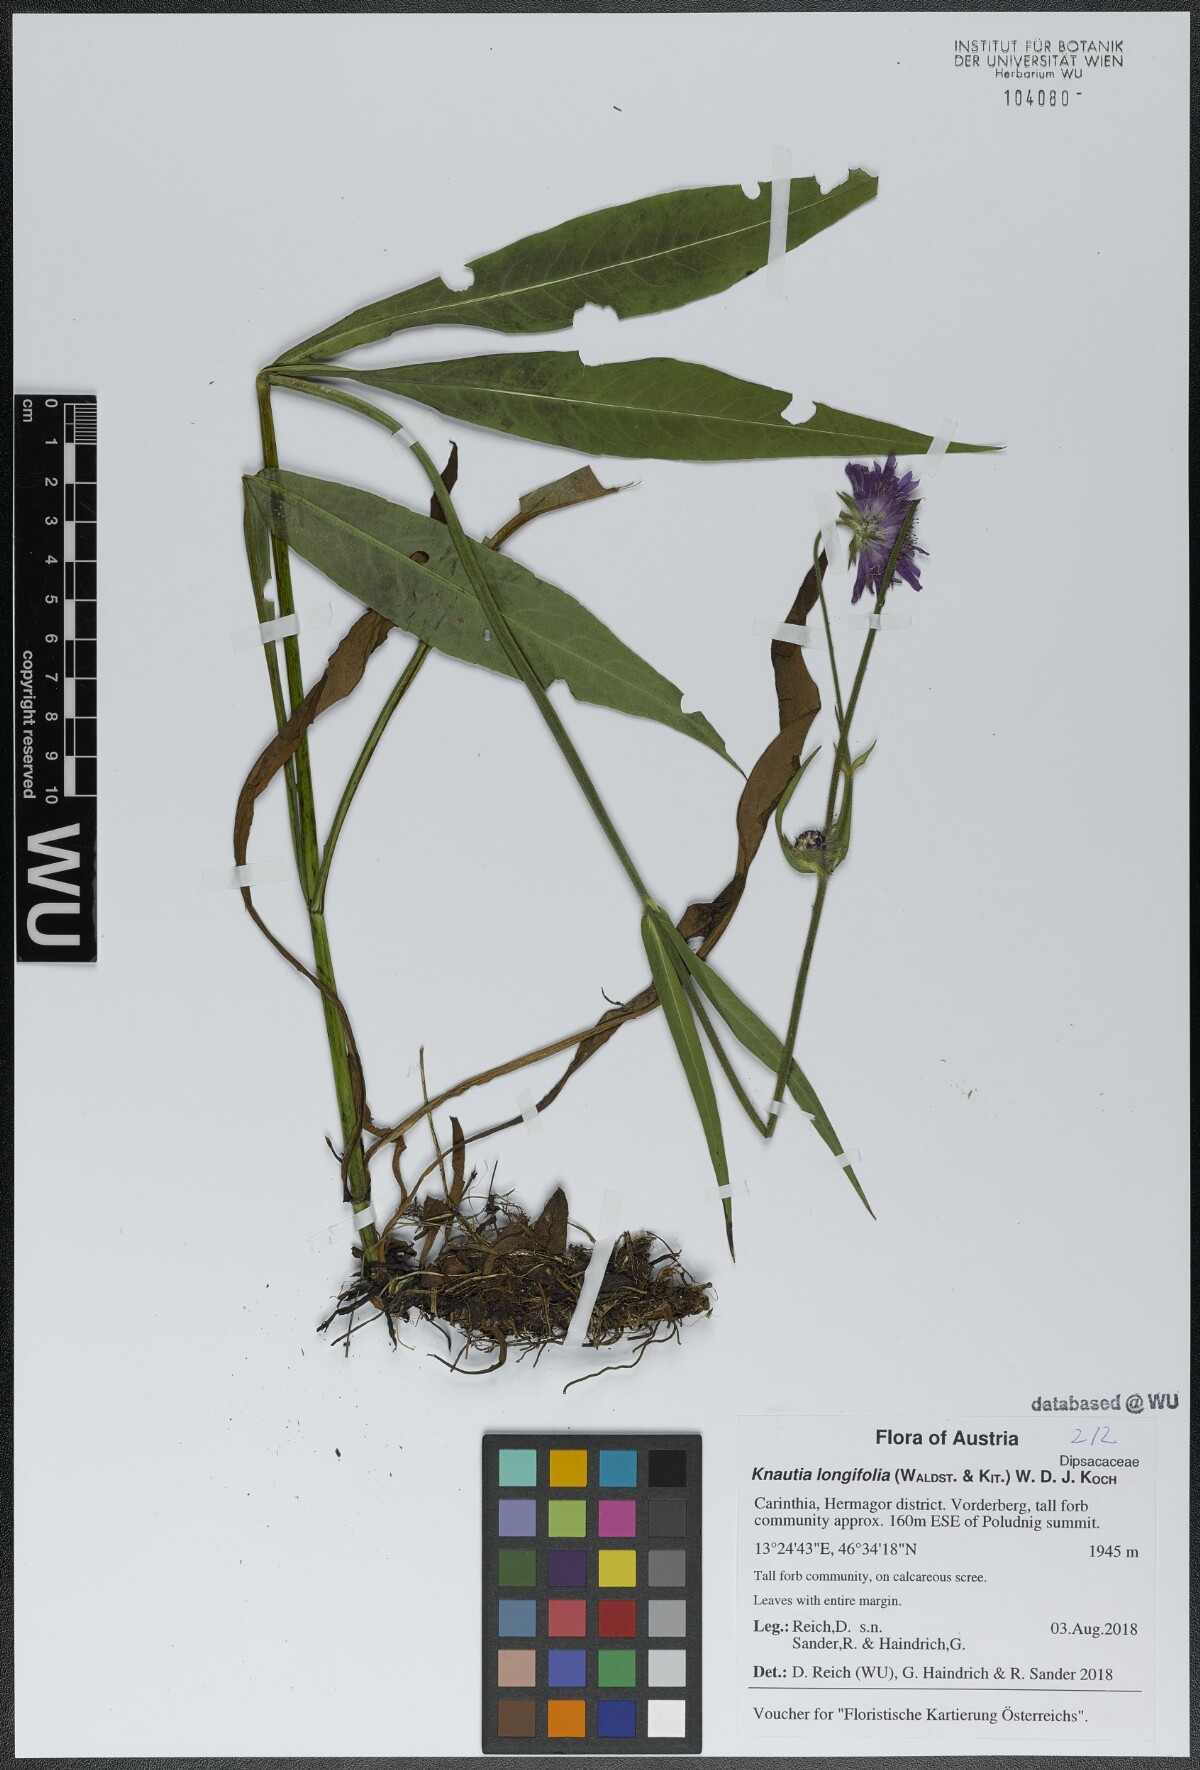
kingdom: Plantae
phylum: Tracheophyta
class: Magnoliopsida
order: Dipsacales
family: Caprifoliaceae
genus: Knautia
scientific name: Knautia longifolia
